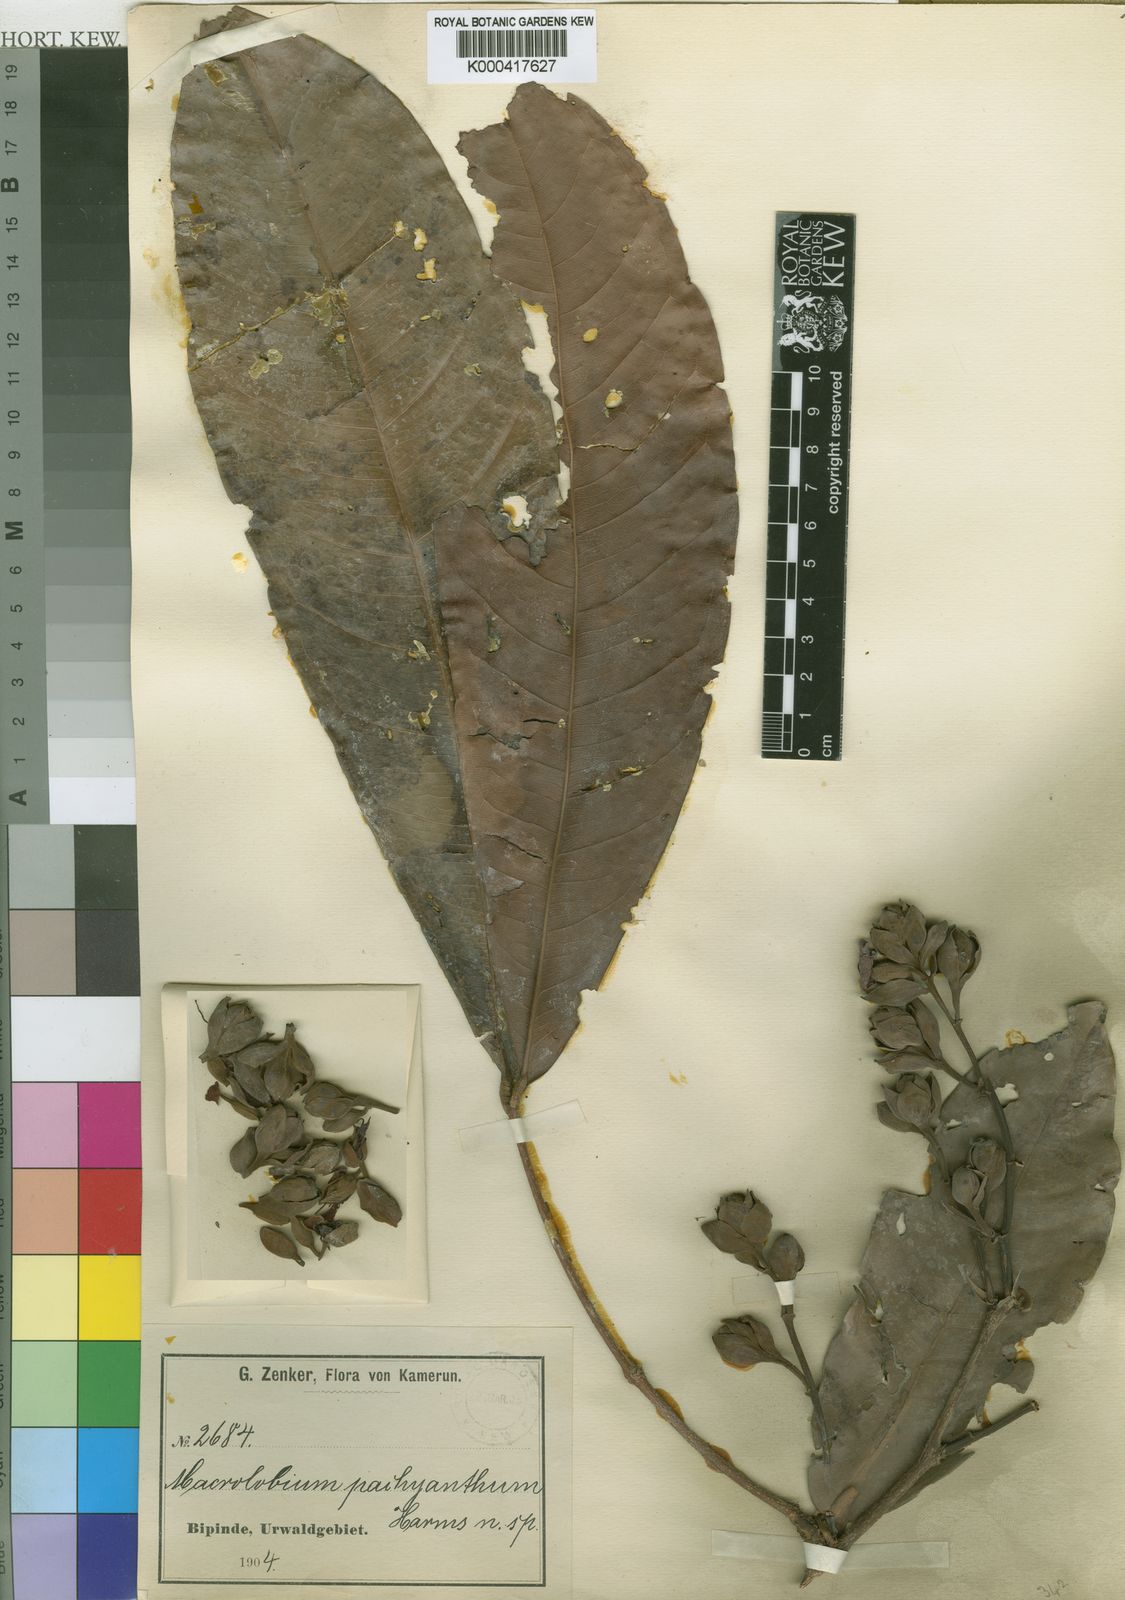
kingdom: Plantae
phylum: Tracheophyta
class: Magnoliopsida
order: Fabales
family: Fabaceae
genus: Gilbertiodendron
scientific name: Gilbertiodendron
